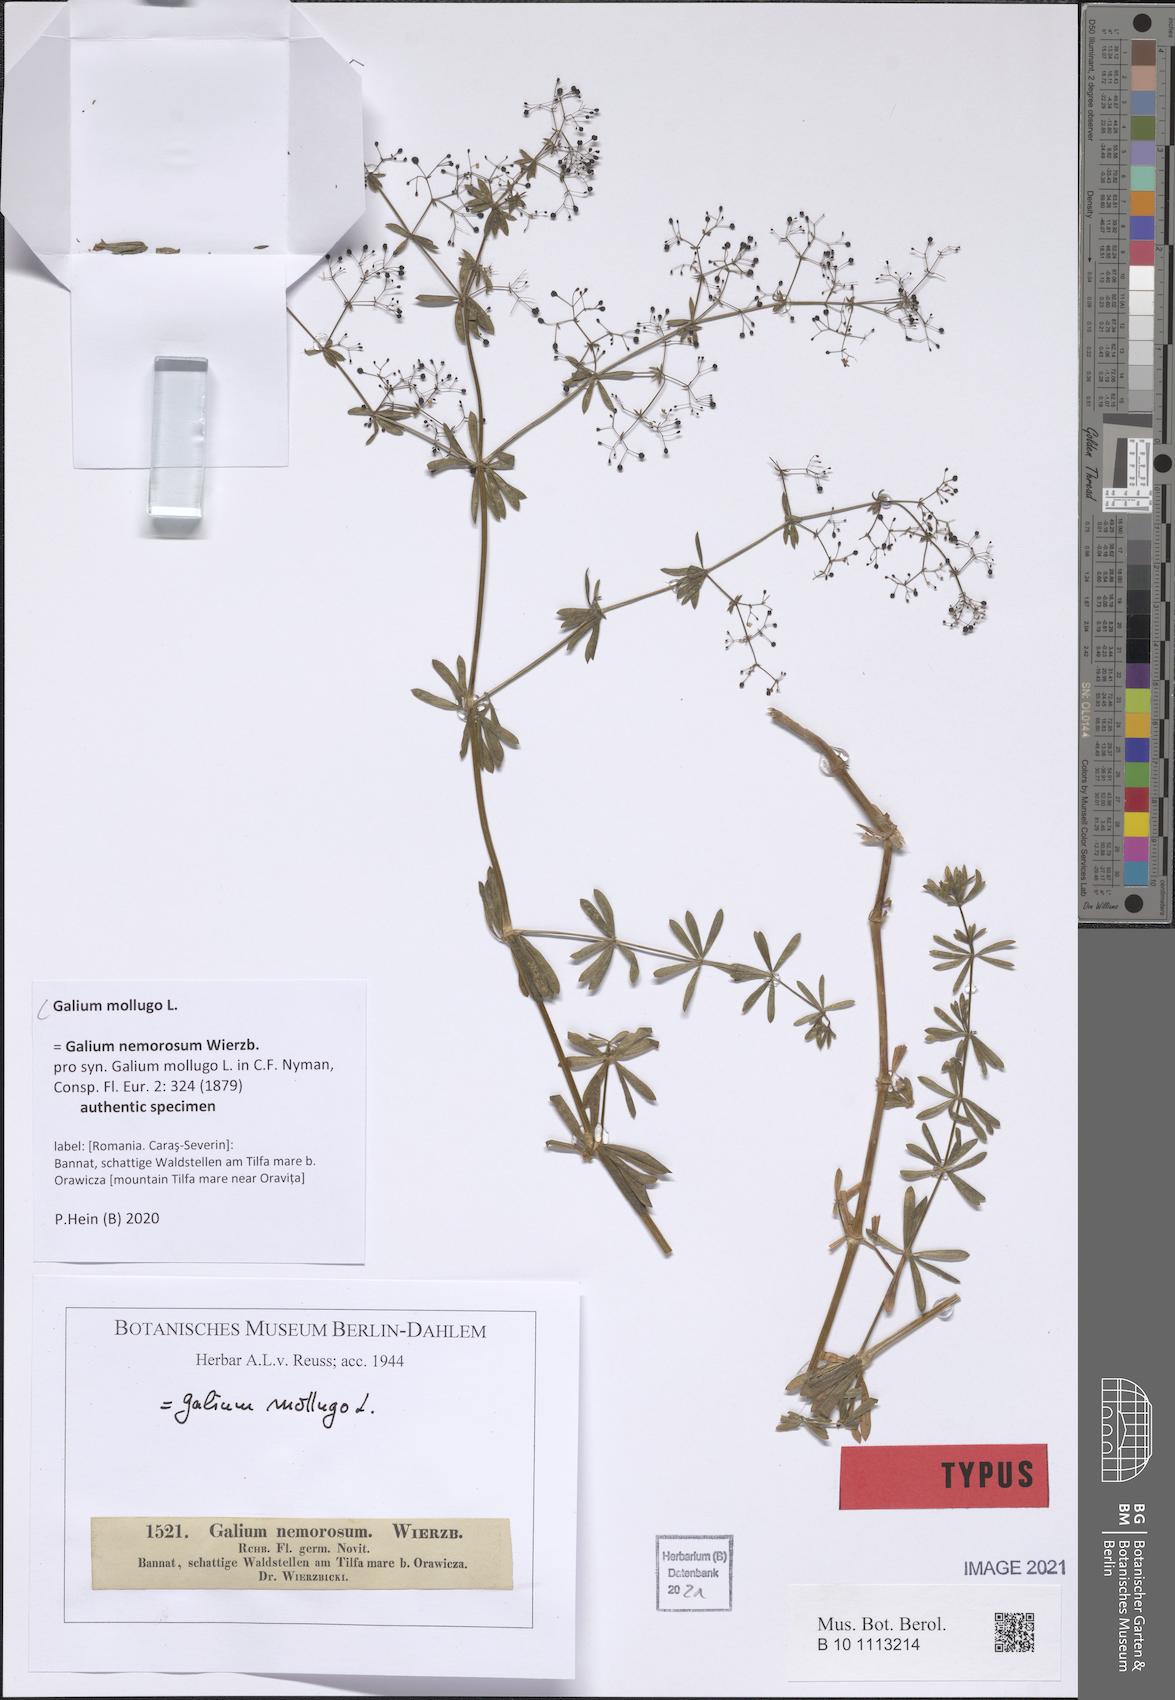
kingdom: Plantae
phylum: Tracheophyta
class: Magnoliopsida
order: Gentianales
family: Rubiaceae
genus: Galium
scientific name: Galium mollugo
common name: Hedge bedstraw
